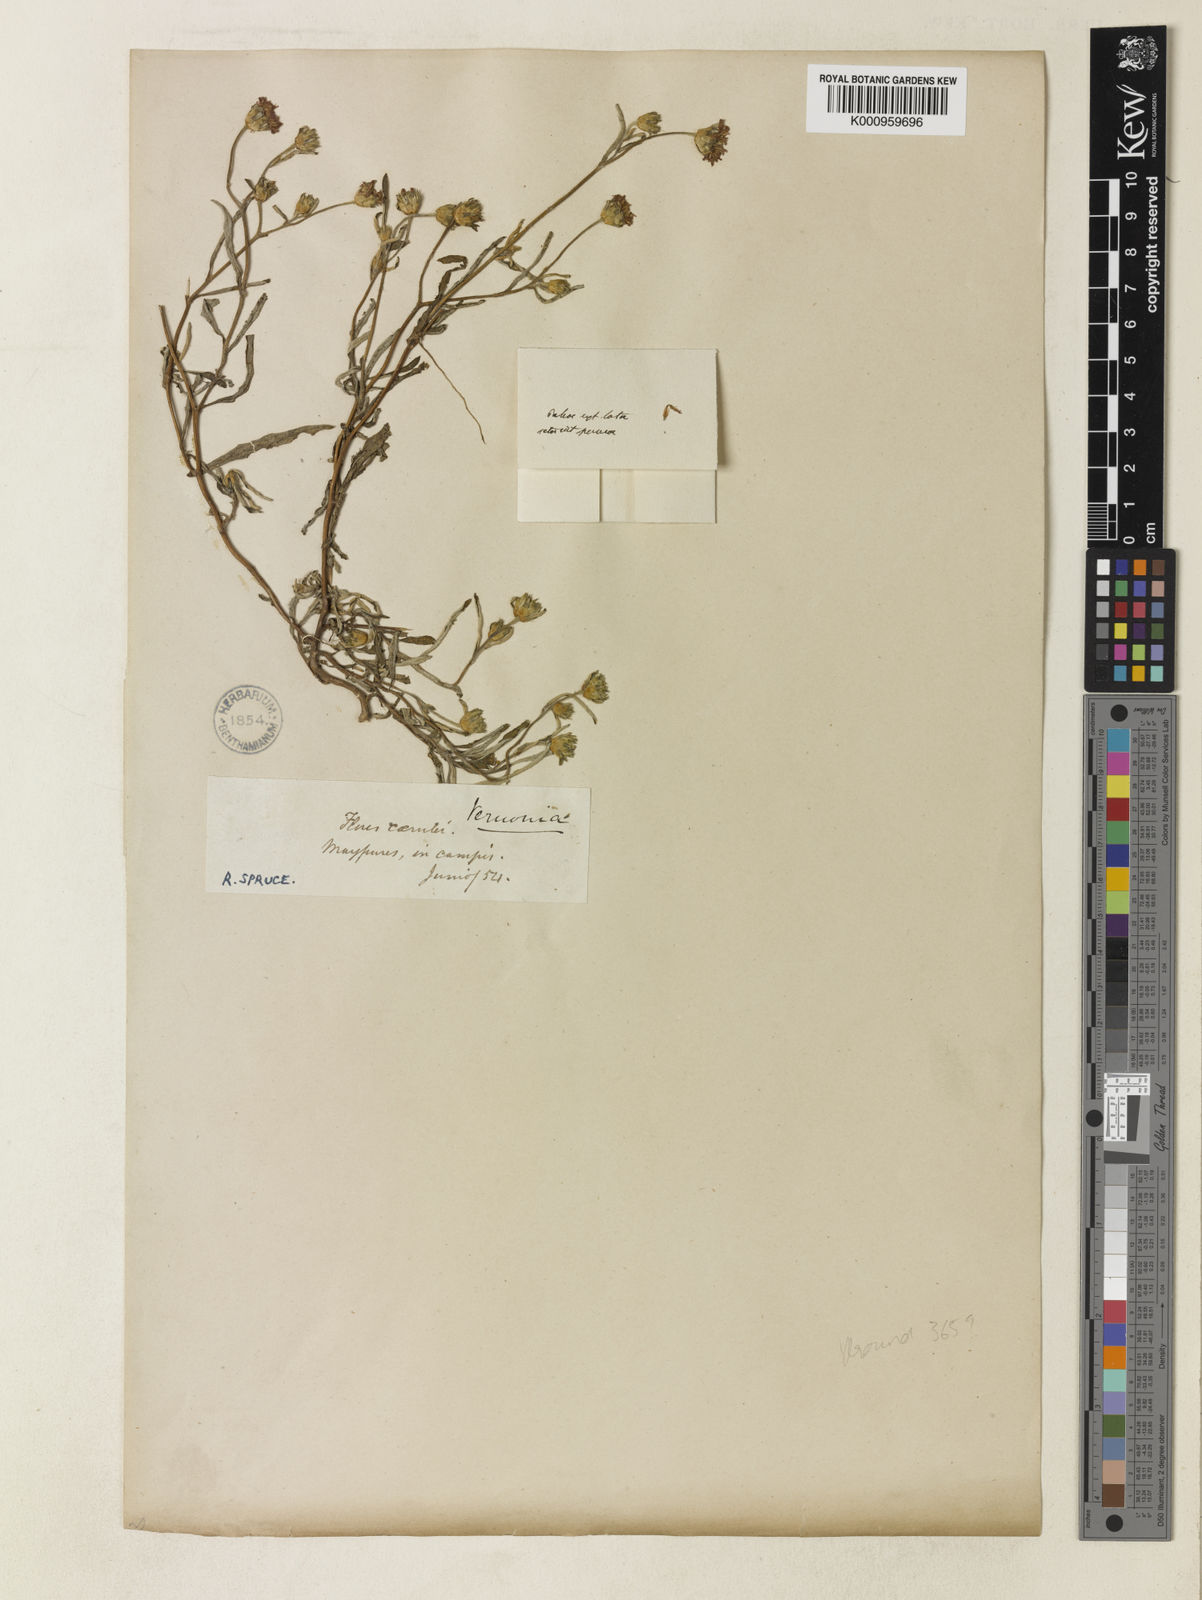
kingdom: Plantae
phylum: Tracheophyta
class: Magnoliopsida
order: Asterales
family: Asteraceae
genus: Vernonia
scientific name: Vernonia
